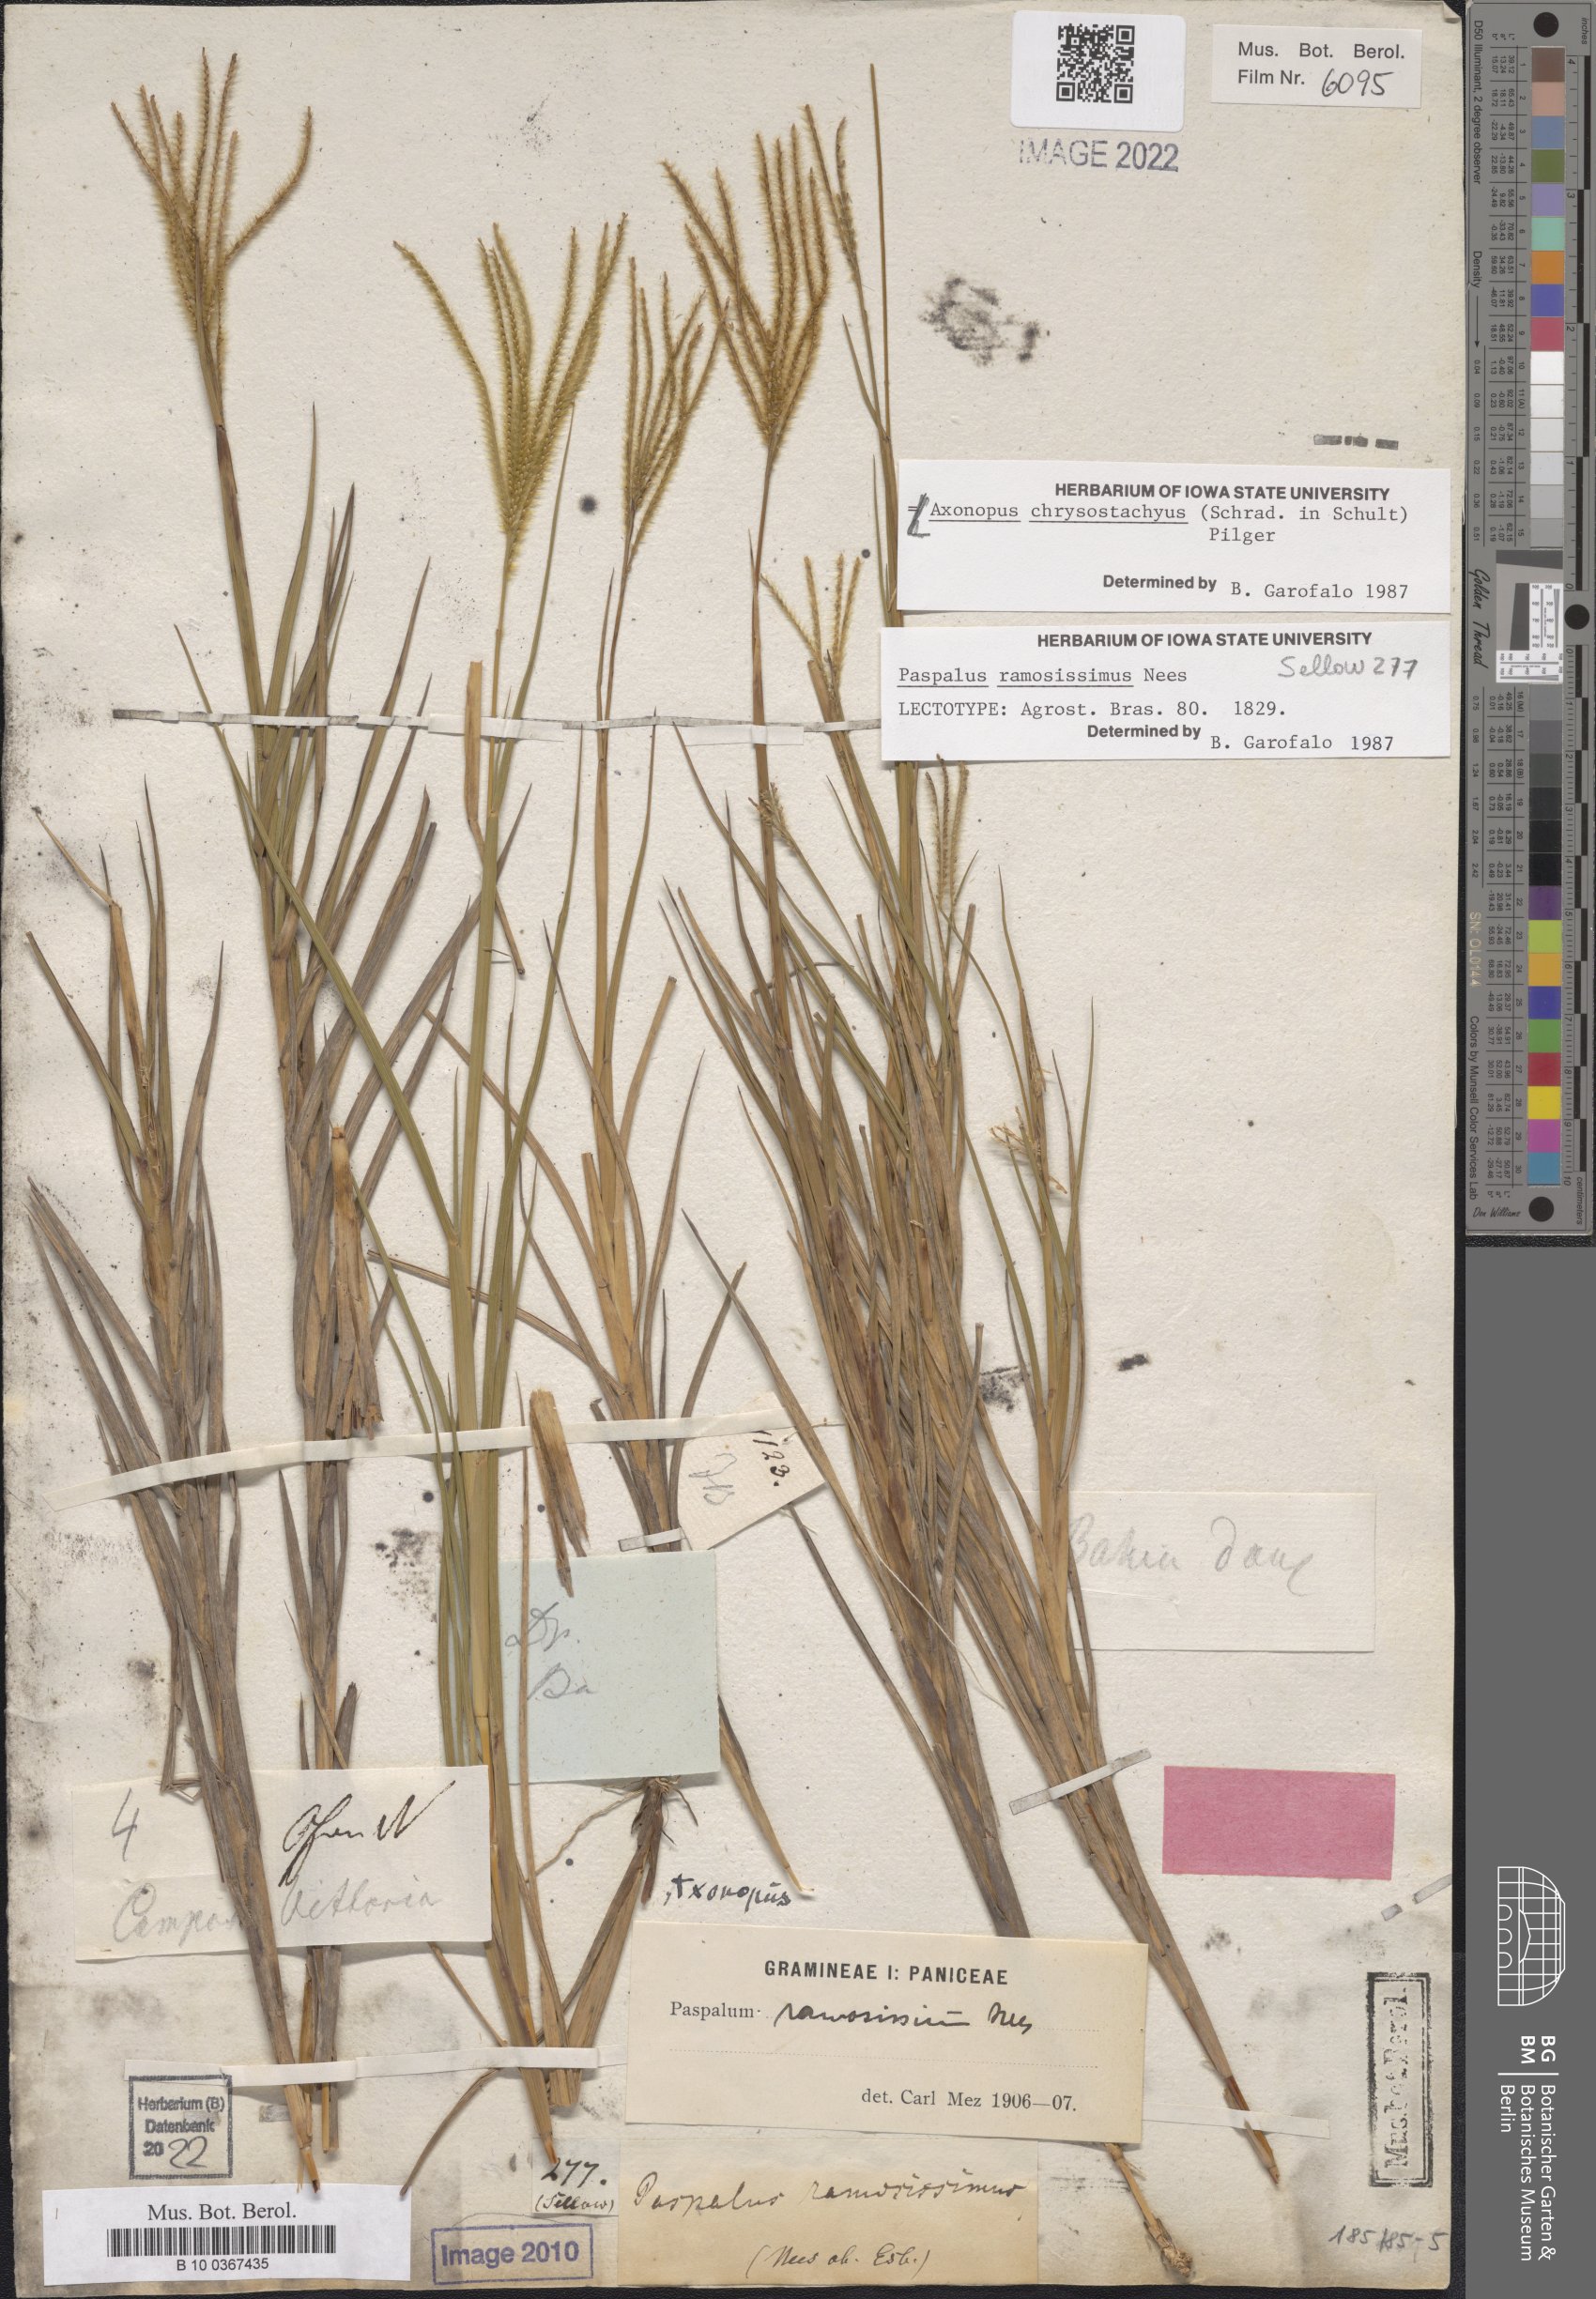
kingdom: Plantae
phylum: Tracheophyta
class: Liliopsida
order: Poales
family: Poaceae
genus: Axonopus
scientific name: Axonopus aureus
